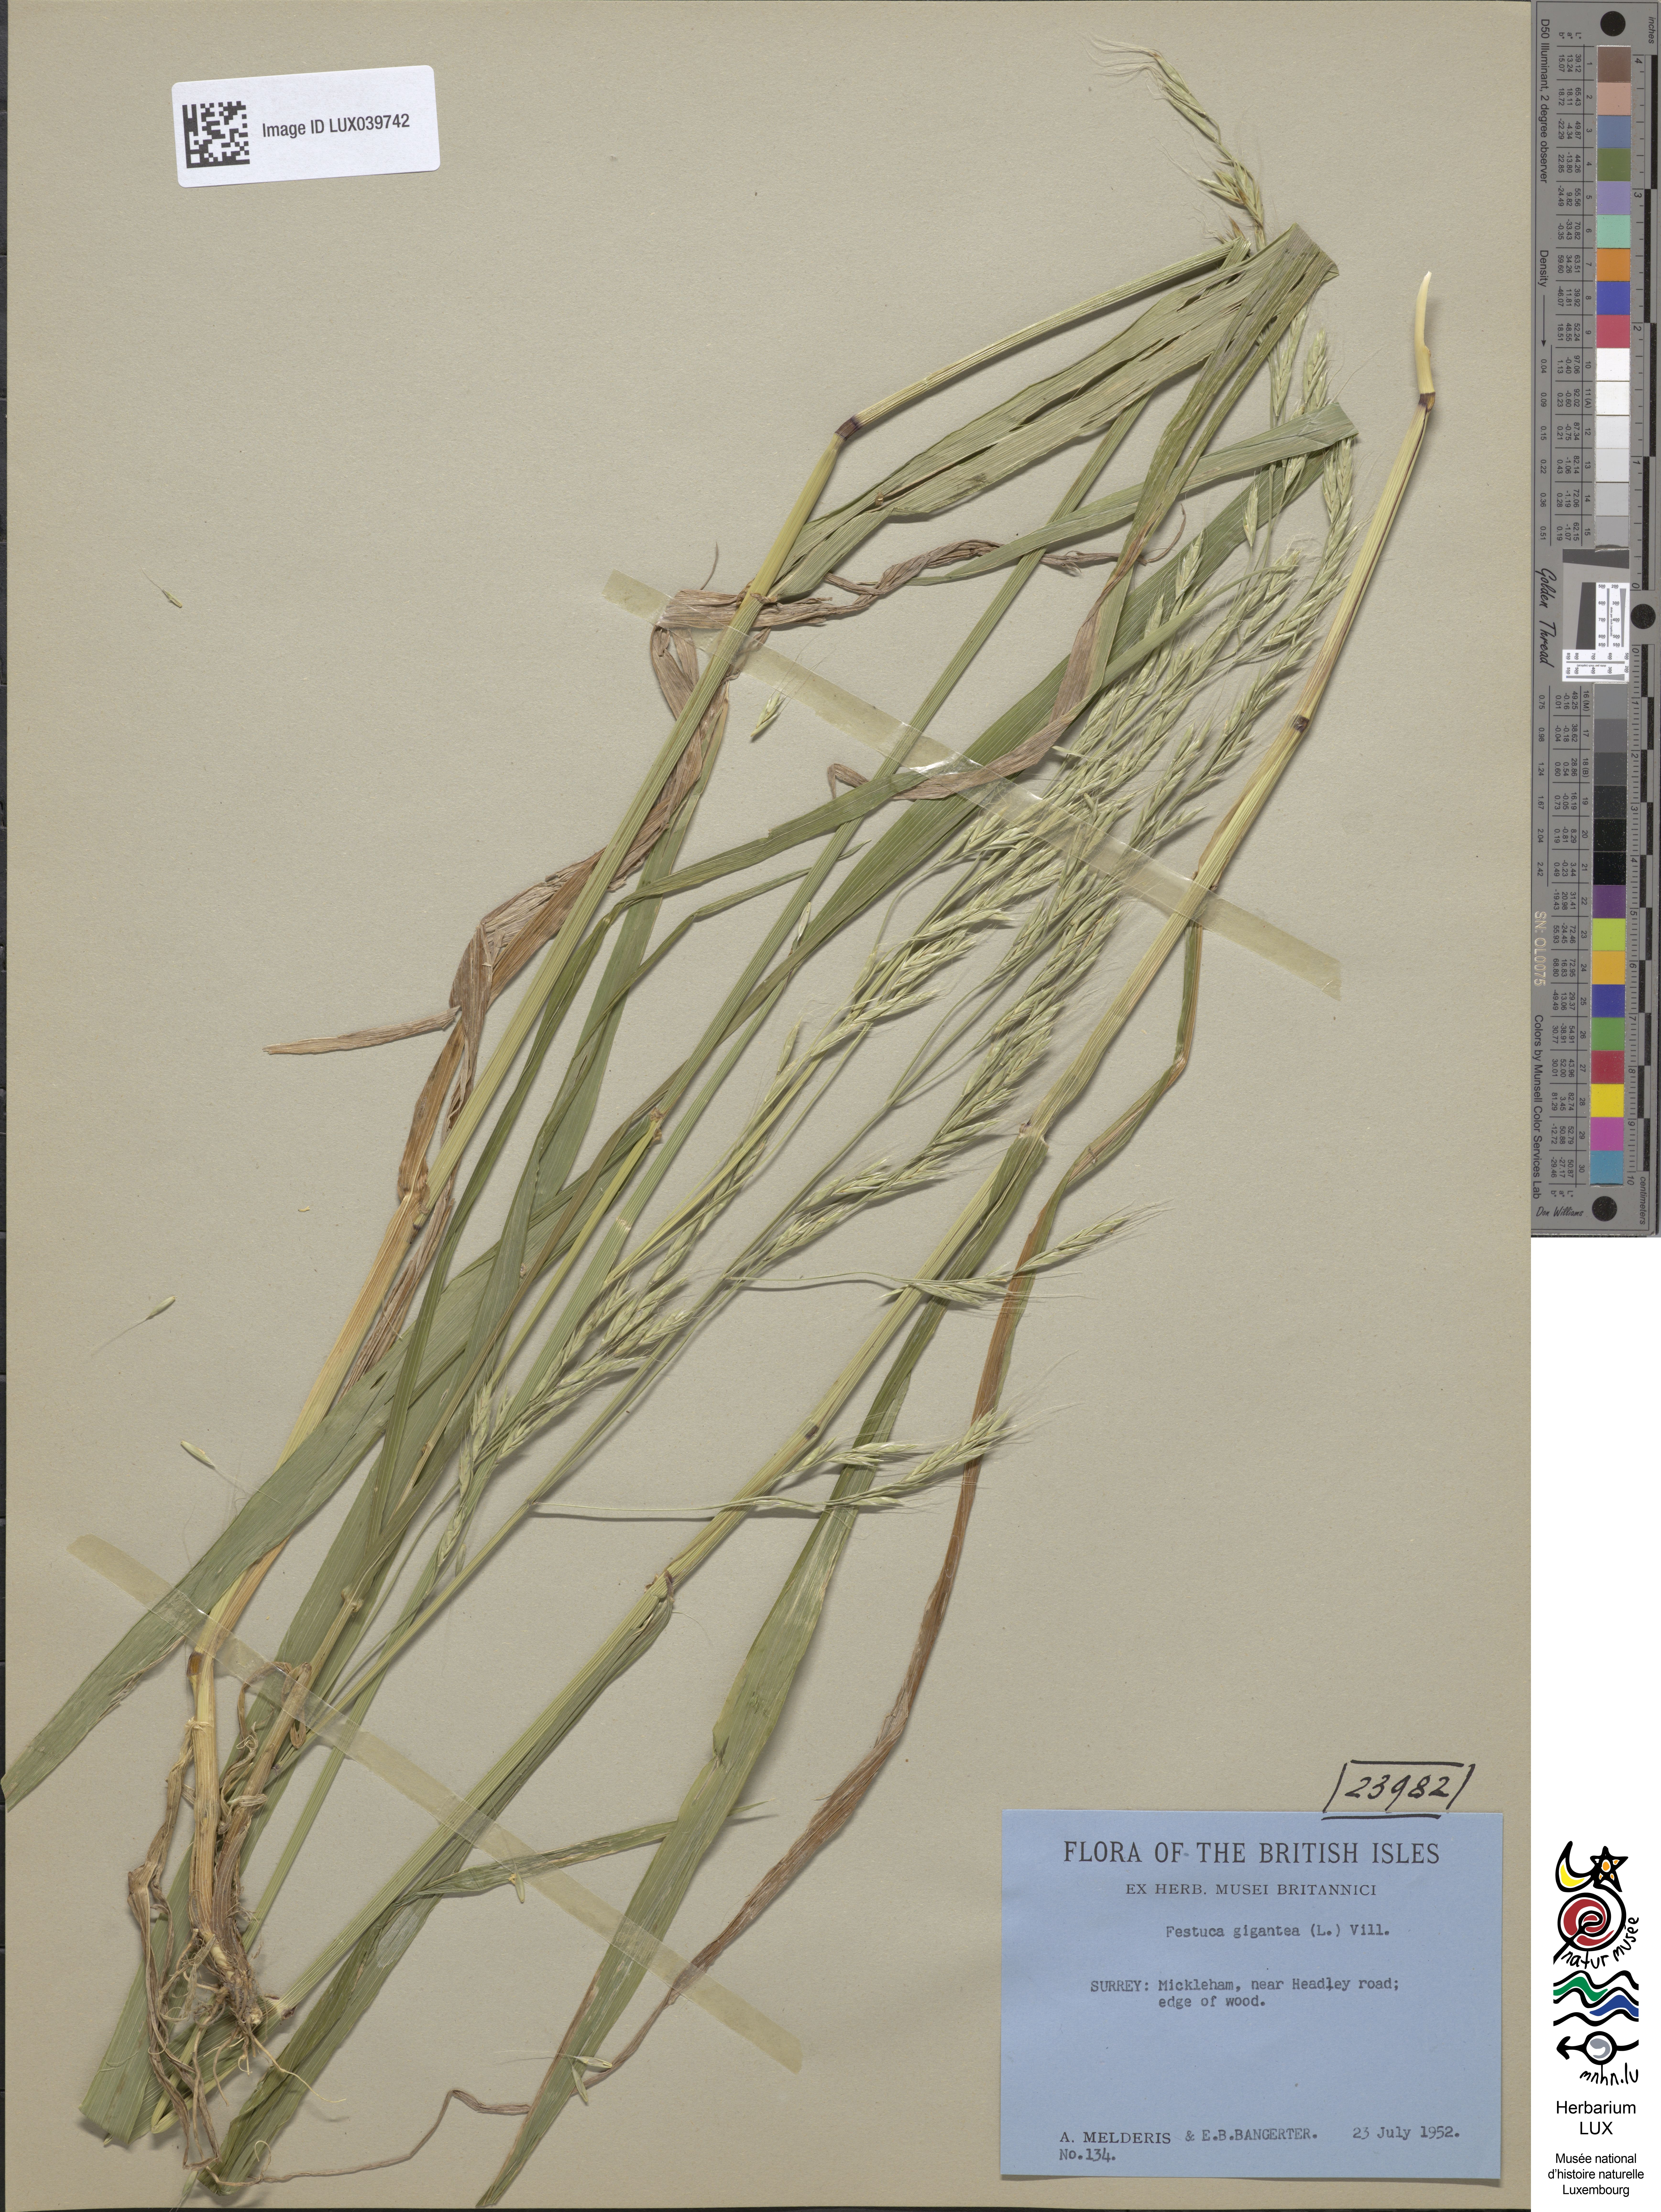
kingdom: Plantae
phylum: Tracheophyta
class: Liliopsida
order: Poales
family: Poaceae
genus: Lolium
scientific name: Lolium giganteum
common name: Giant fescue
